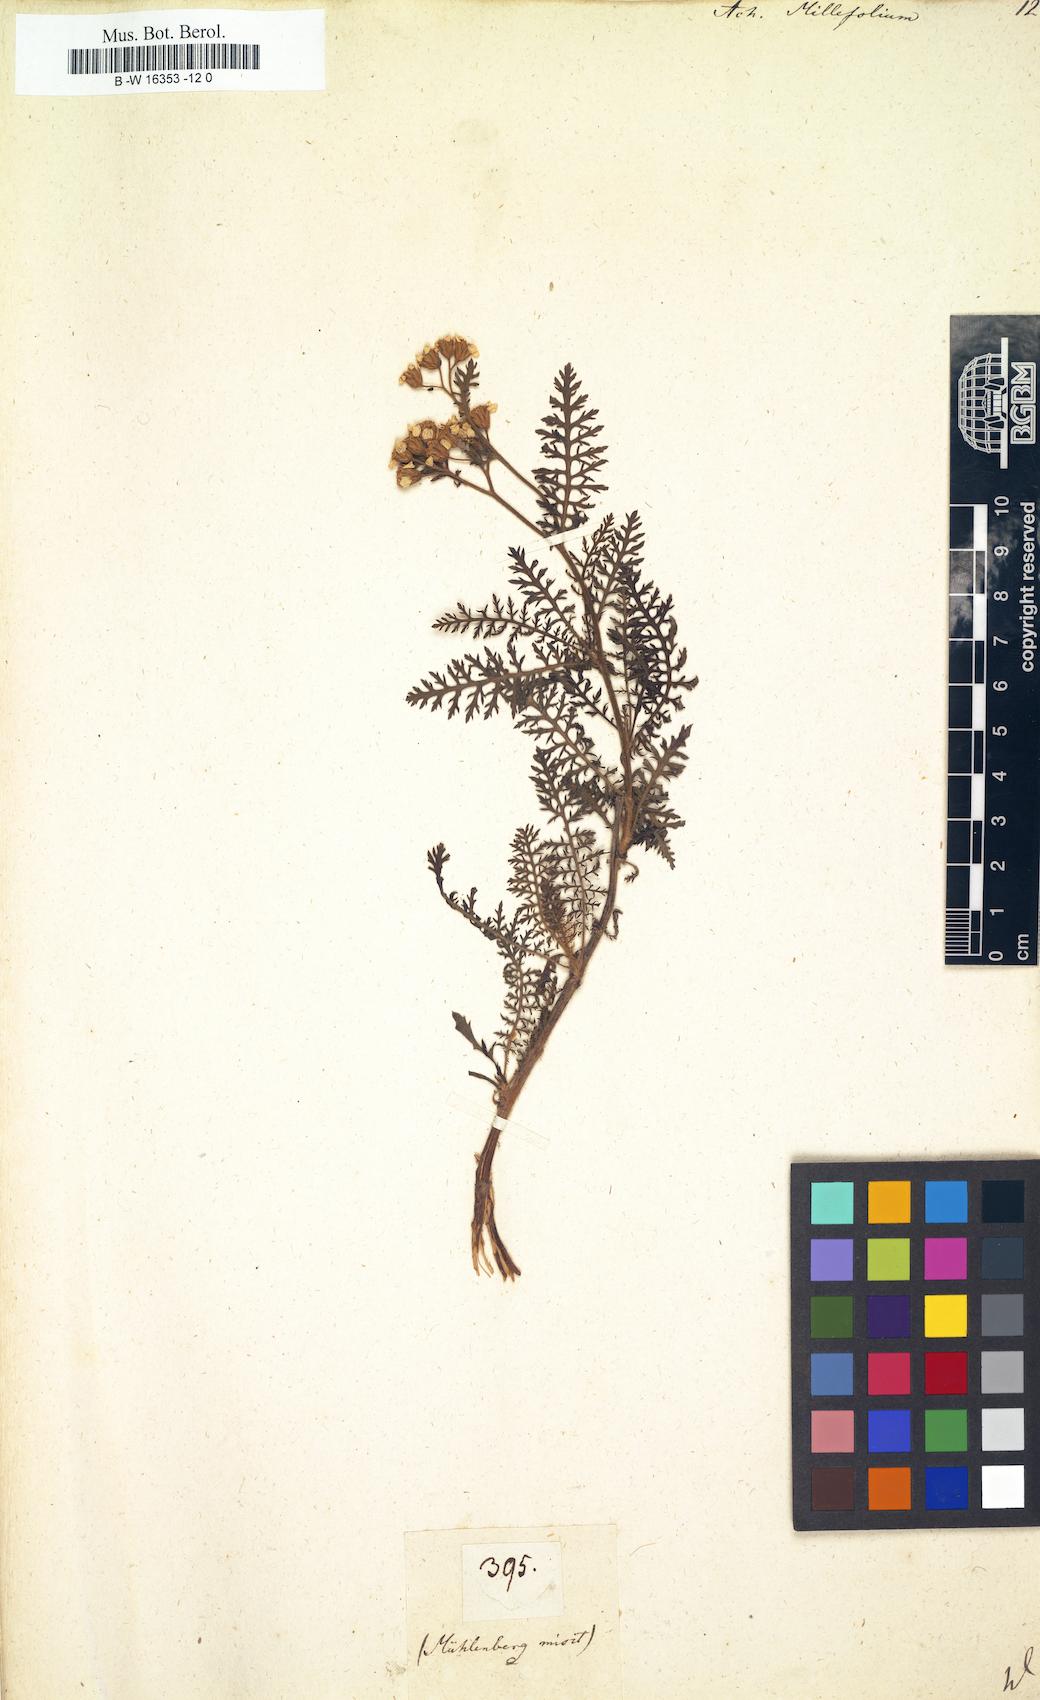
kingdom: Plantae
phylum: Tracheophyta
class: Magnoliopsida
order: Asterales
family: Asteraceae
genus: Achillea
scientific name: Achillea millefolium
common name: Yarrow
